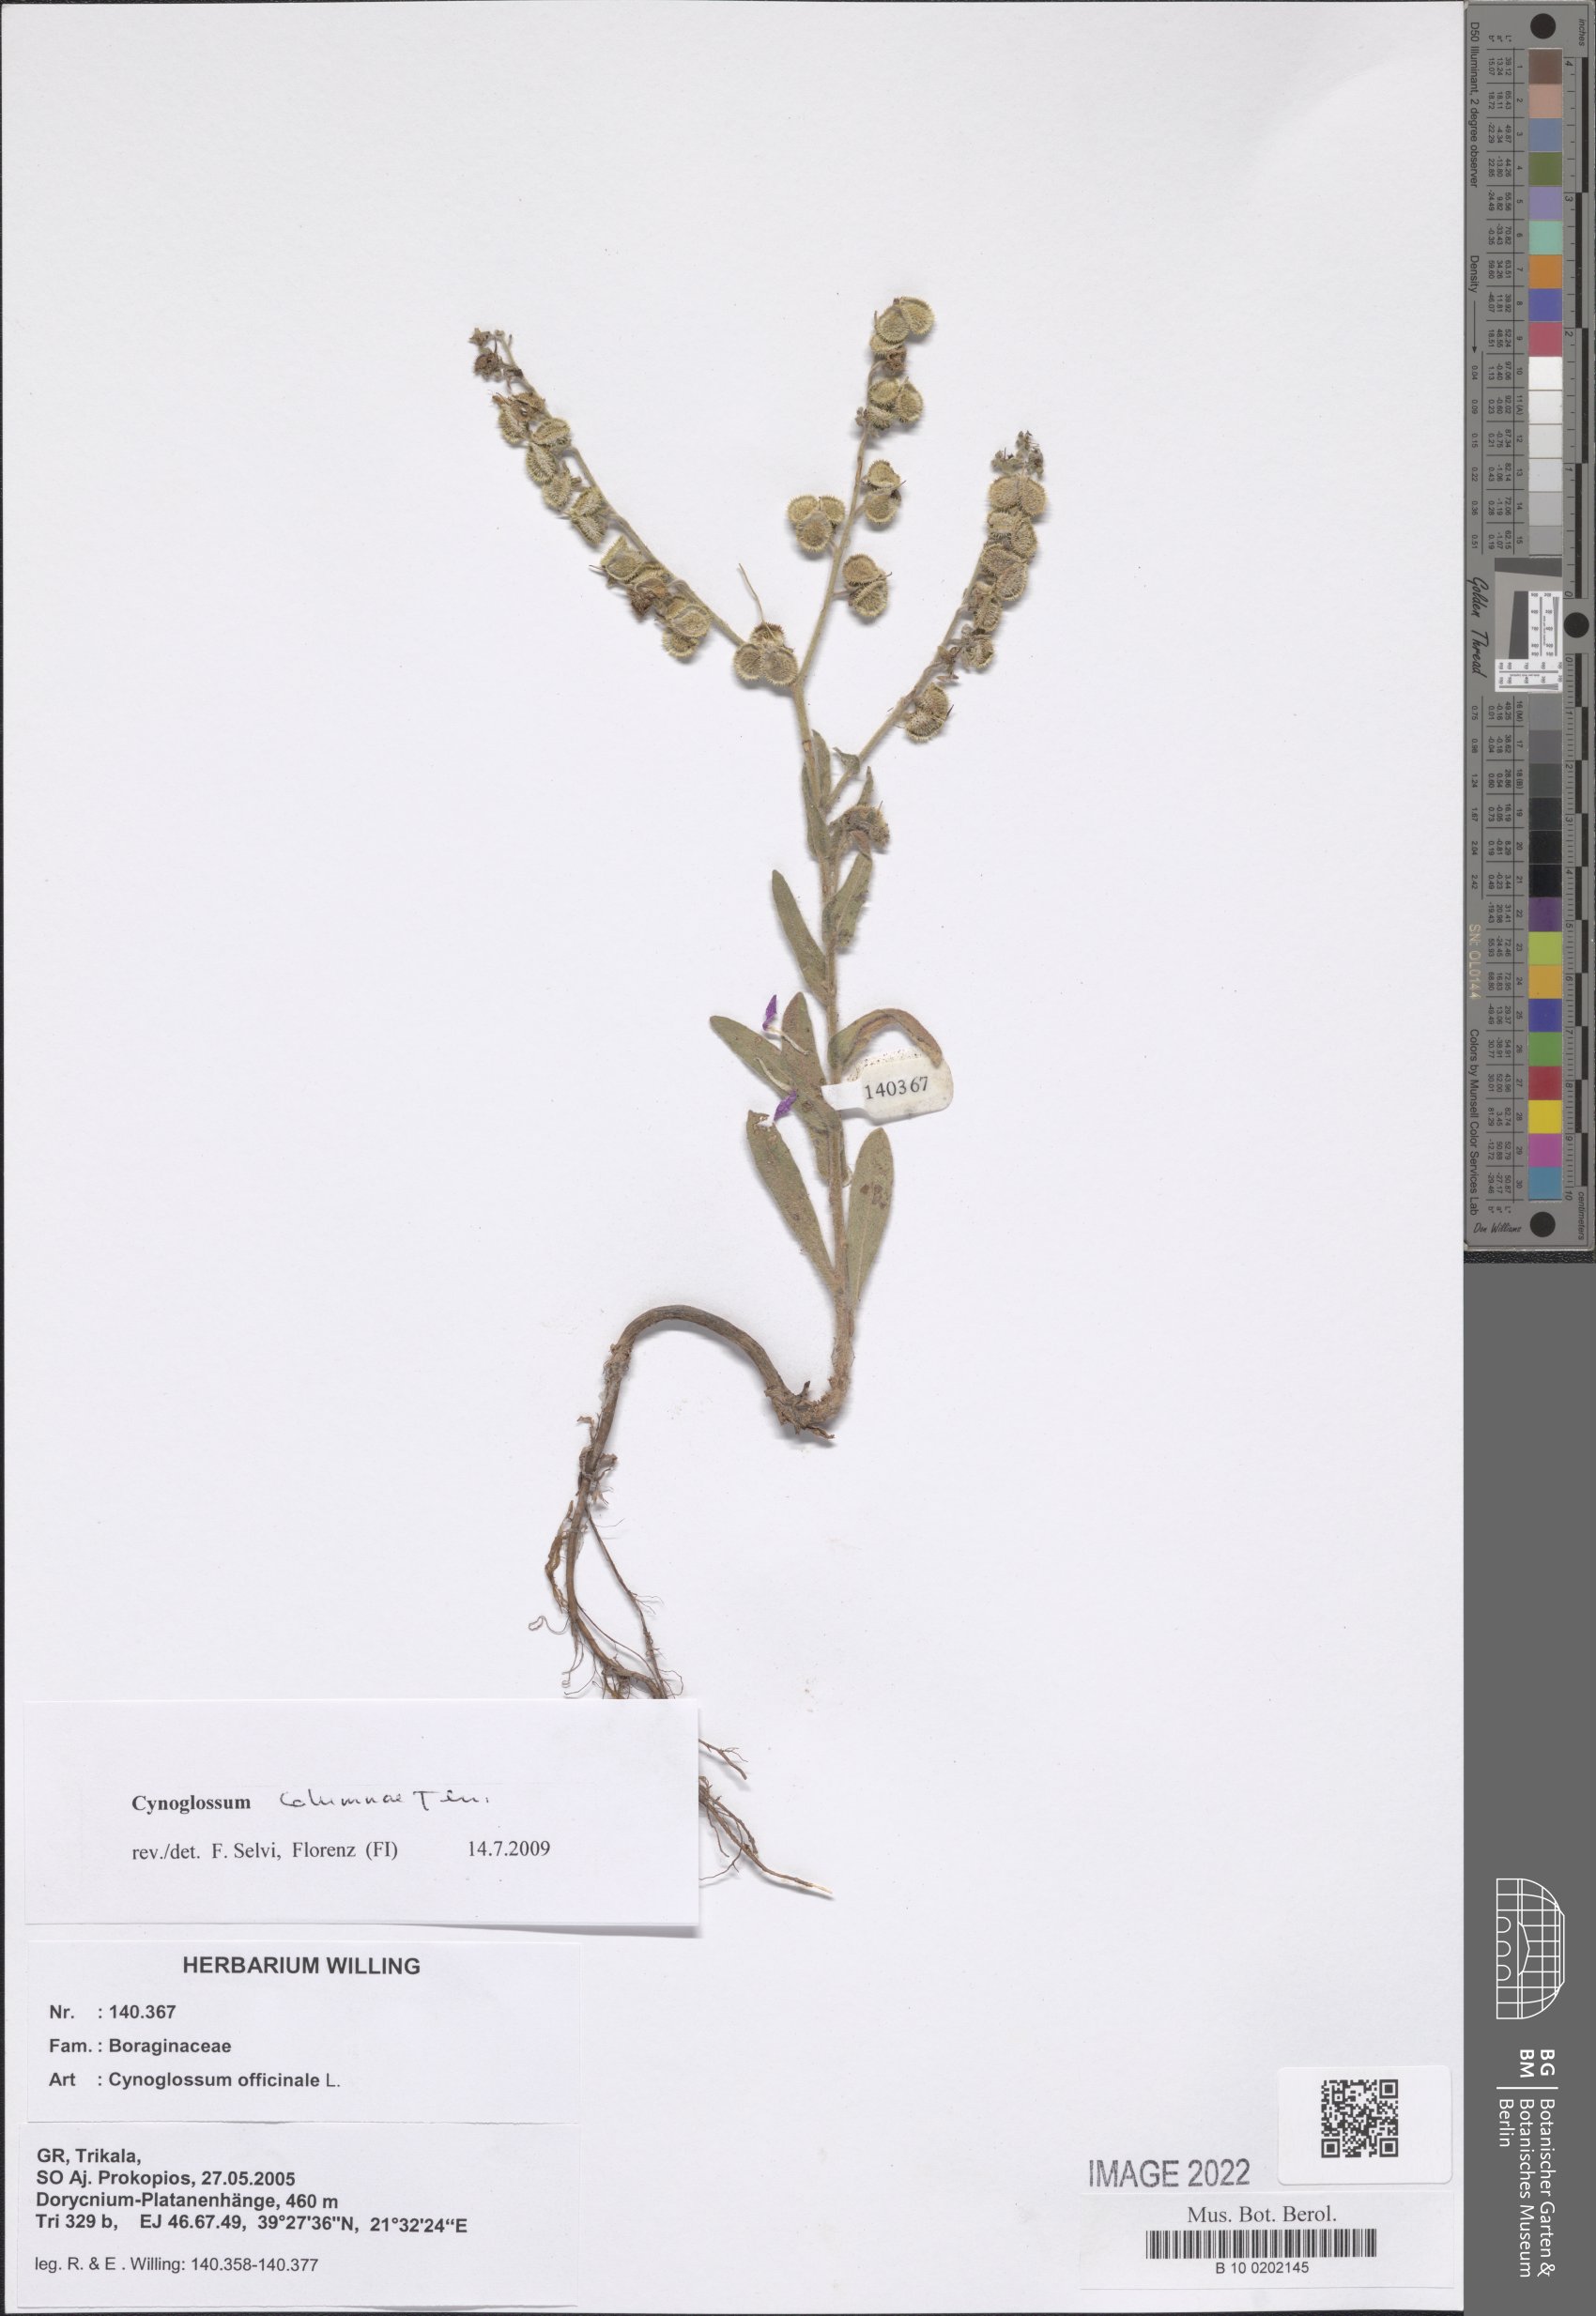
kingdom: Plantae
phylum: Tracheophyta
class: Magnoliopsida
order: Boraginales
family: Boraginaceae
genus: Rindera
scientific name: Rindera columnae
